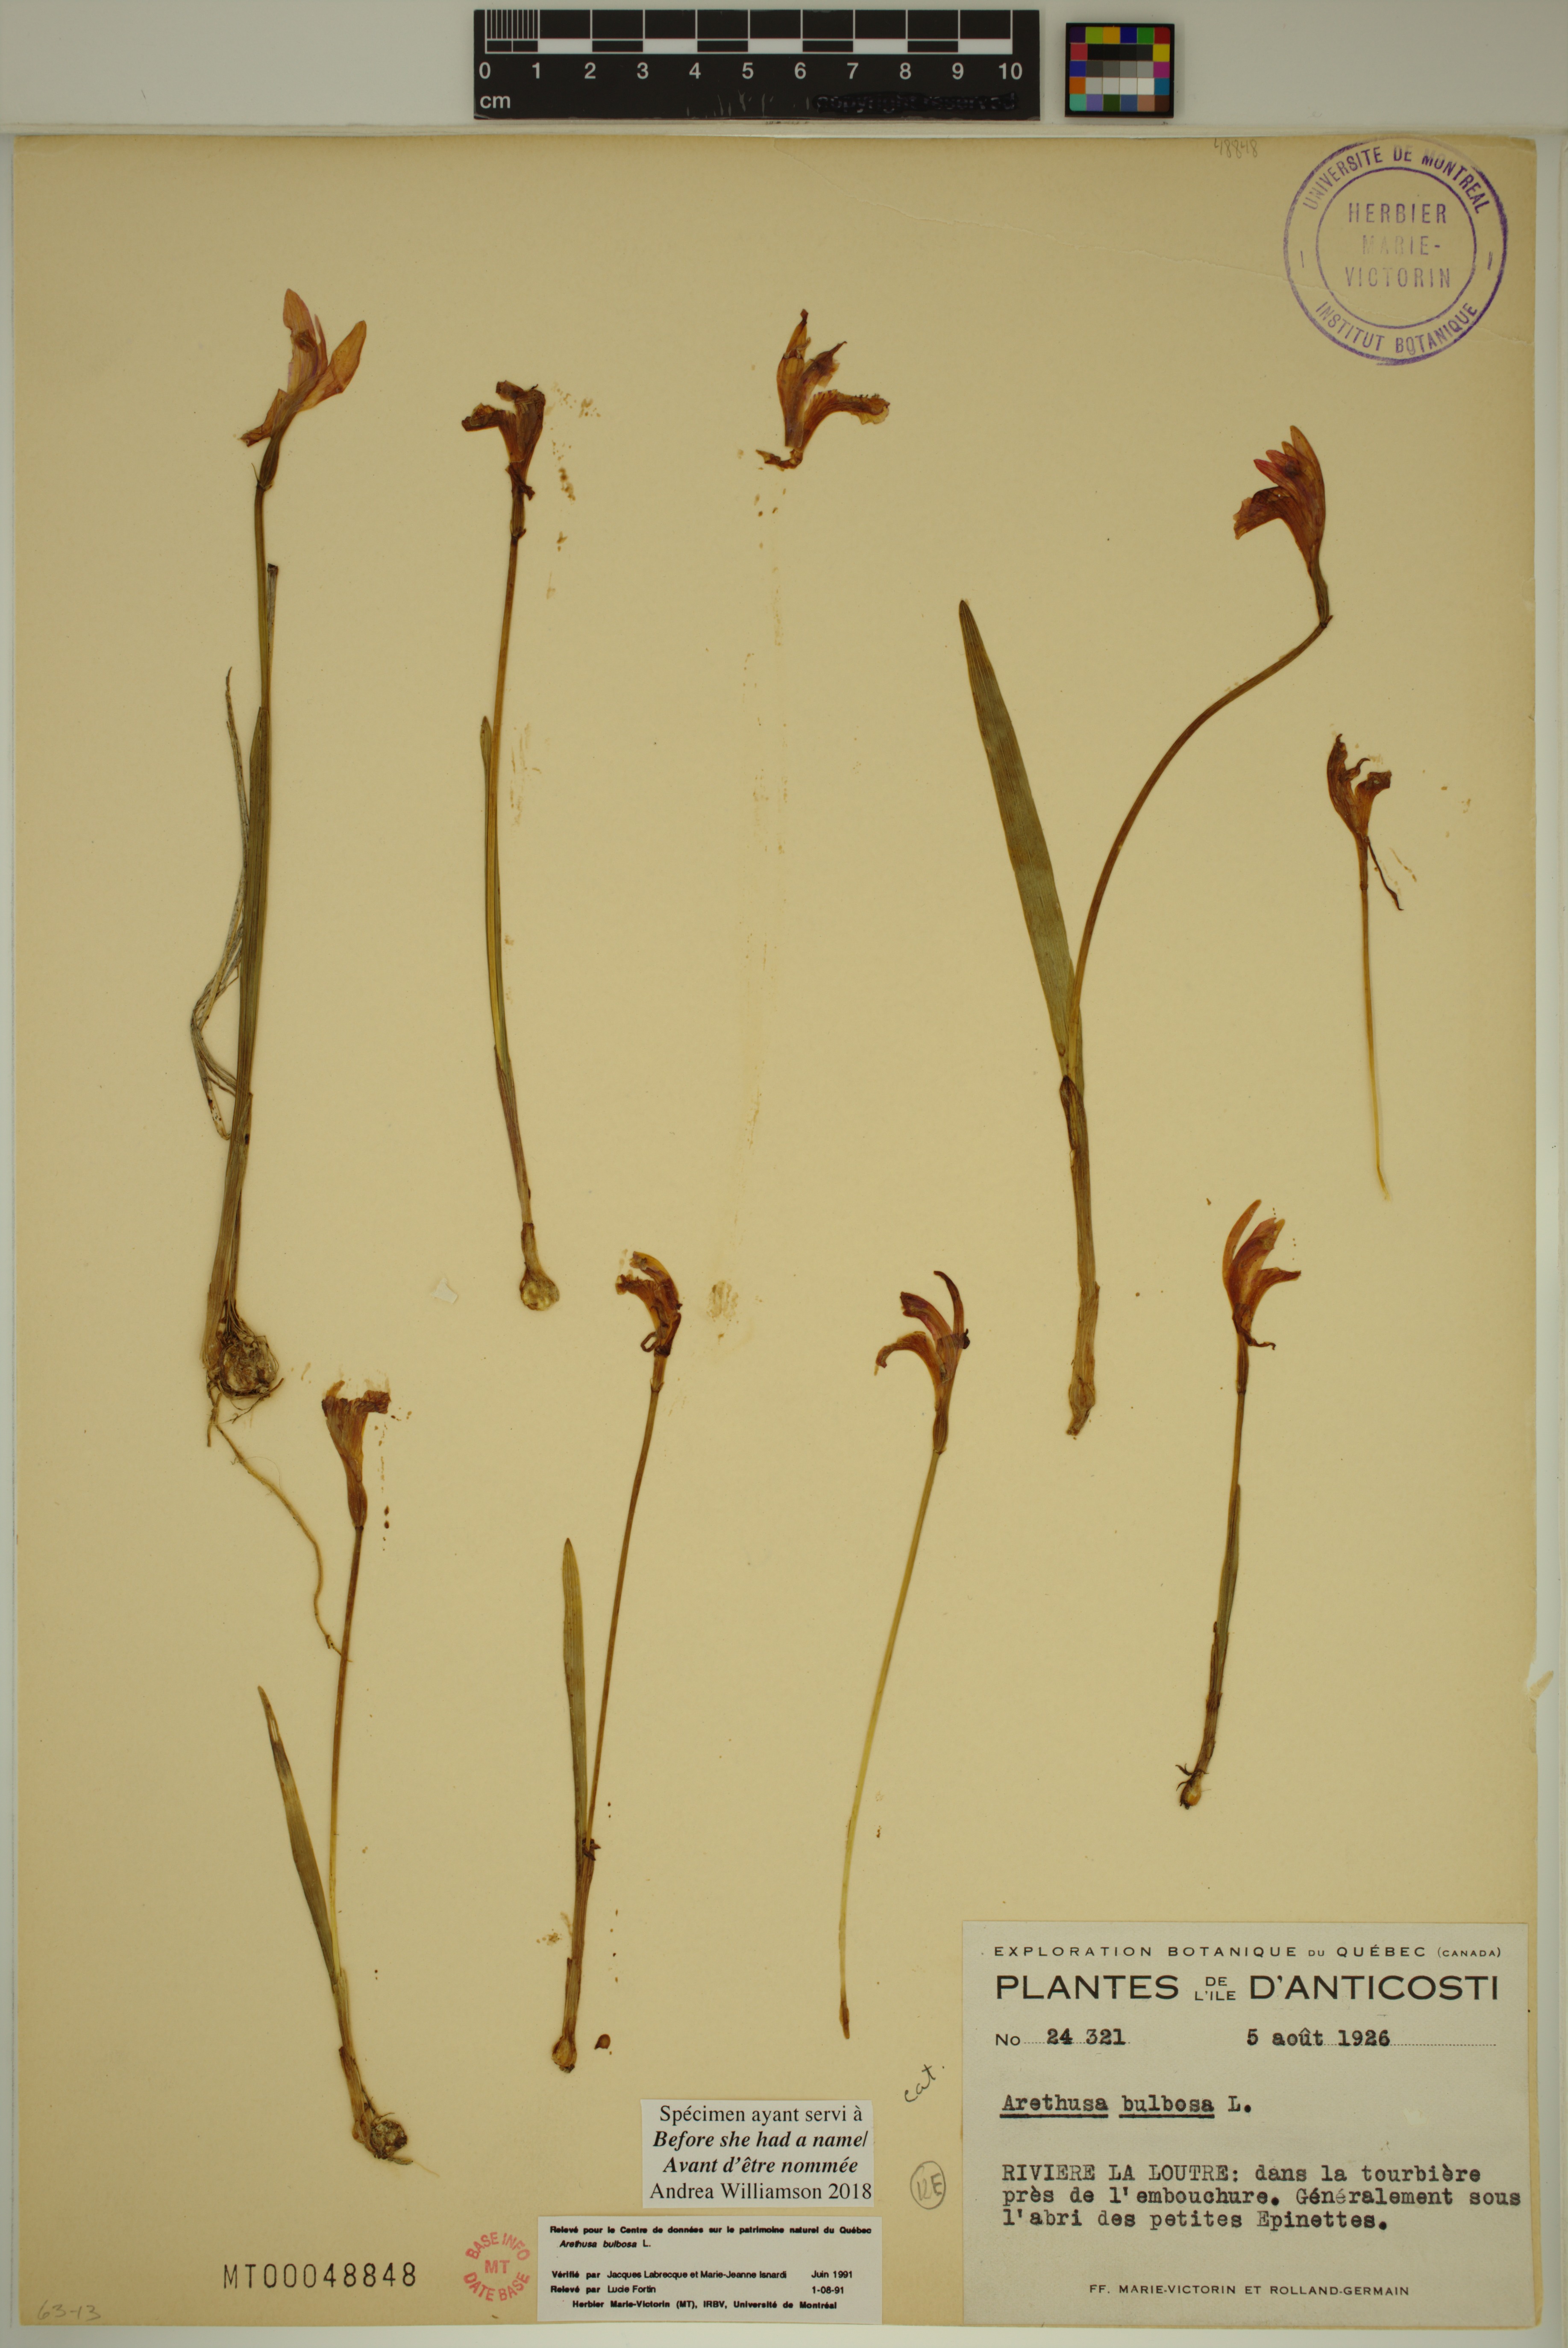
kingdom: Plantae
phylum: Tracheophyta
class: Liliopsida
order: Asparagales
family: Orchidaceae
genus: Arethusa
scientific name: Arethusa bulbosa
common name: Arethusa
